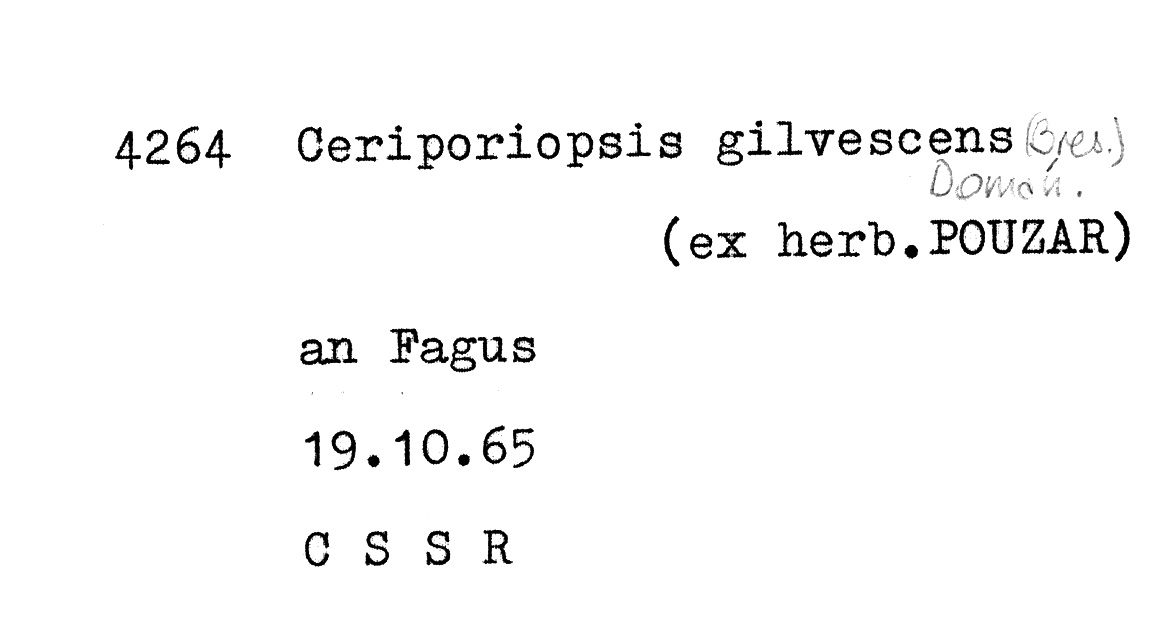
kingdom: Plantae
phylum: Tracheophyta
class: Magnoliopsida
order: Fagales
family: Fagaceae
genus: Fagus
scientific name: Fagus sylvatica
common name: Beech
